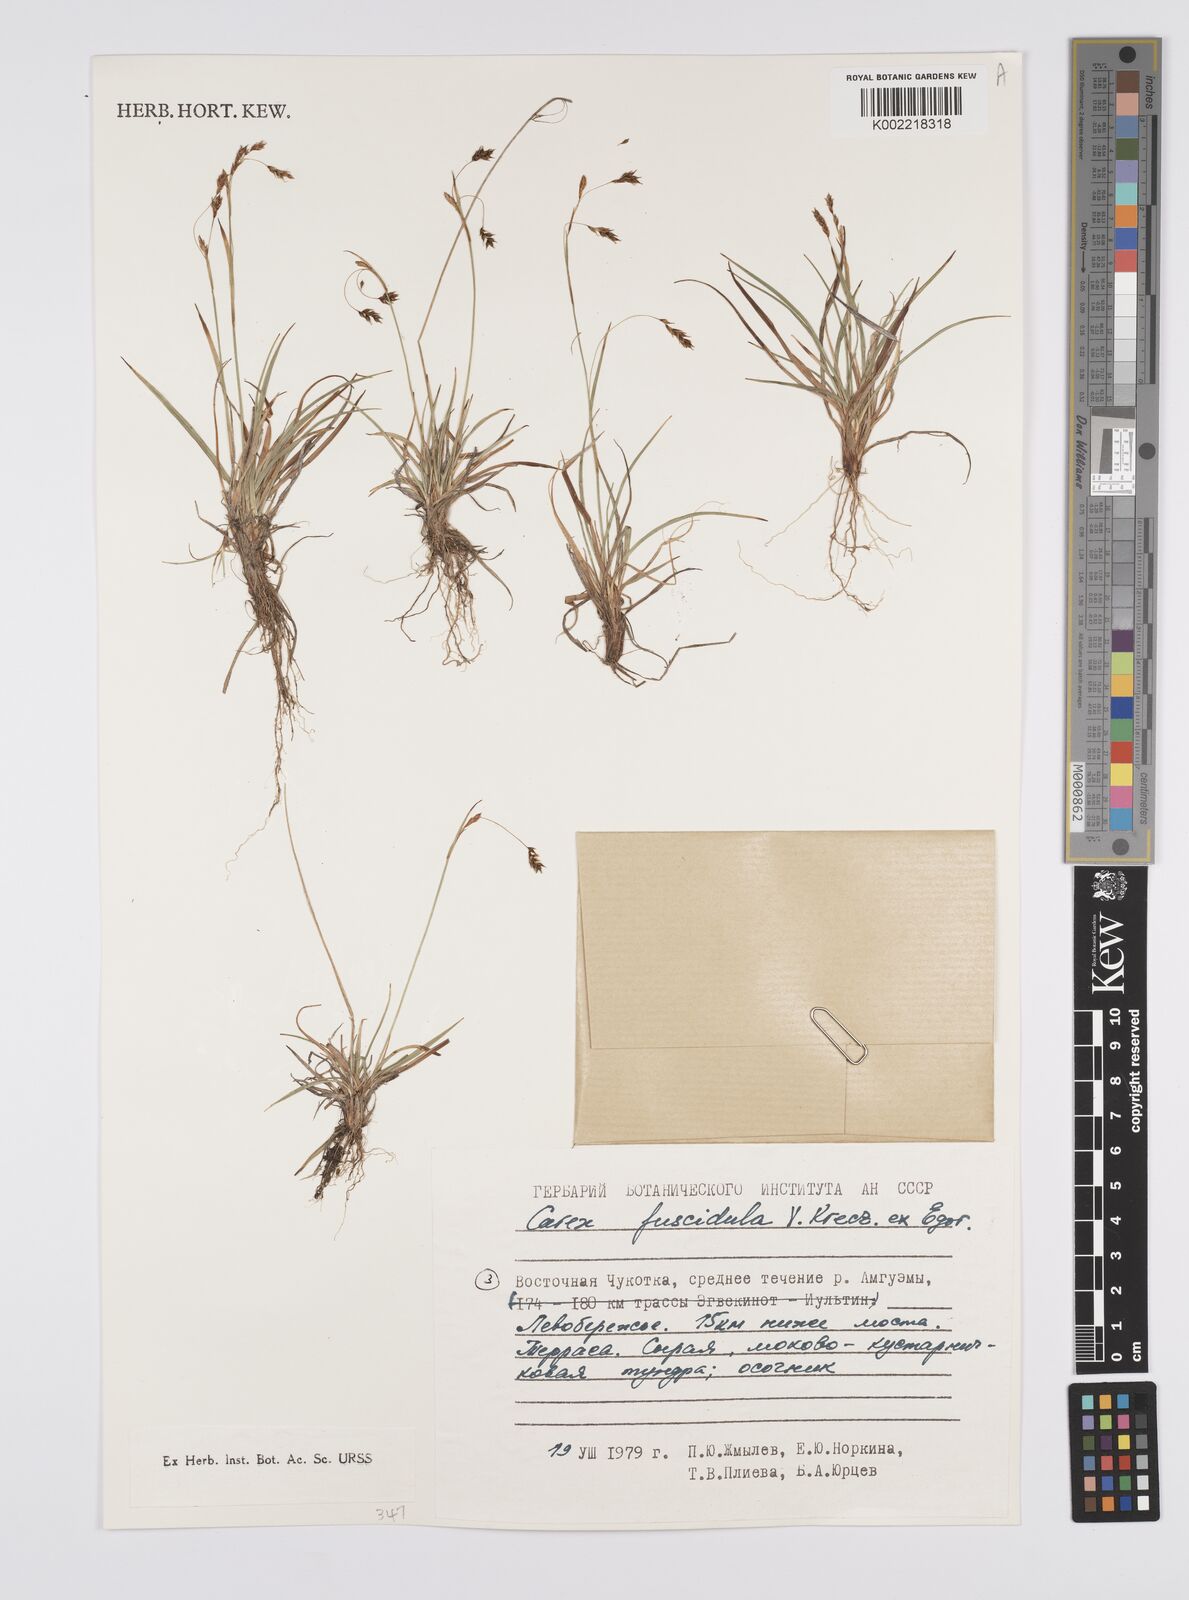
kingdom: Plantae
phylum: Tracheophyta
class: Liliopsida
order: Poales
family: Cyperaceae
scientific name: Cyperaceae
